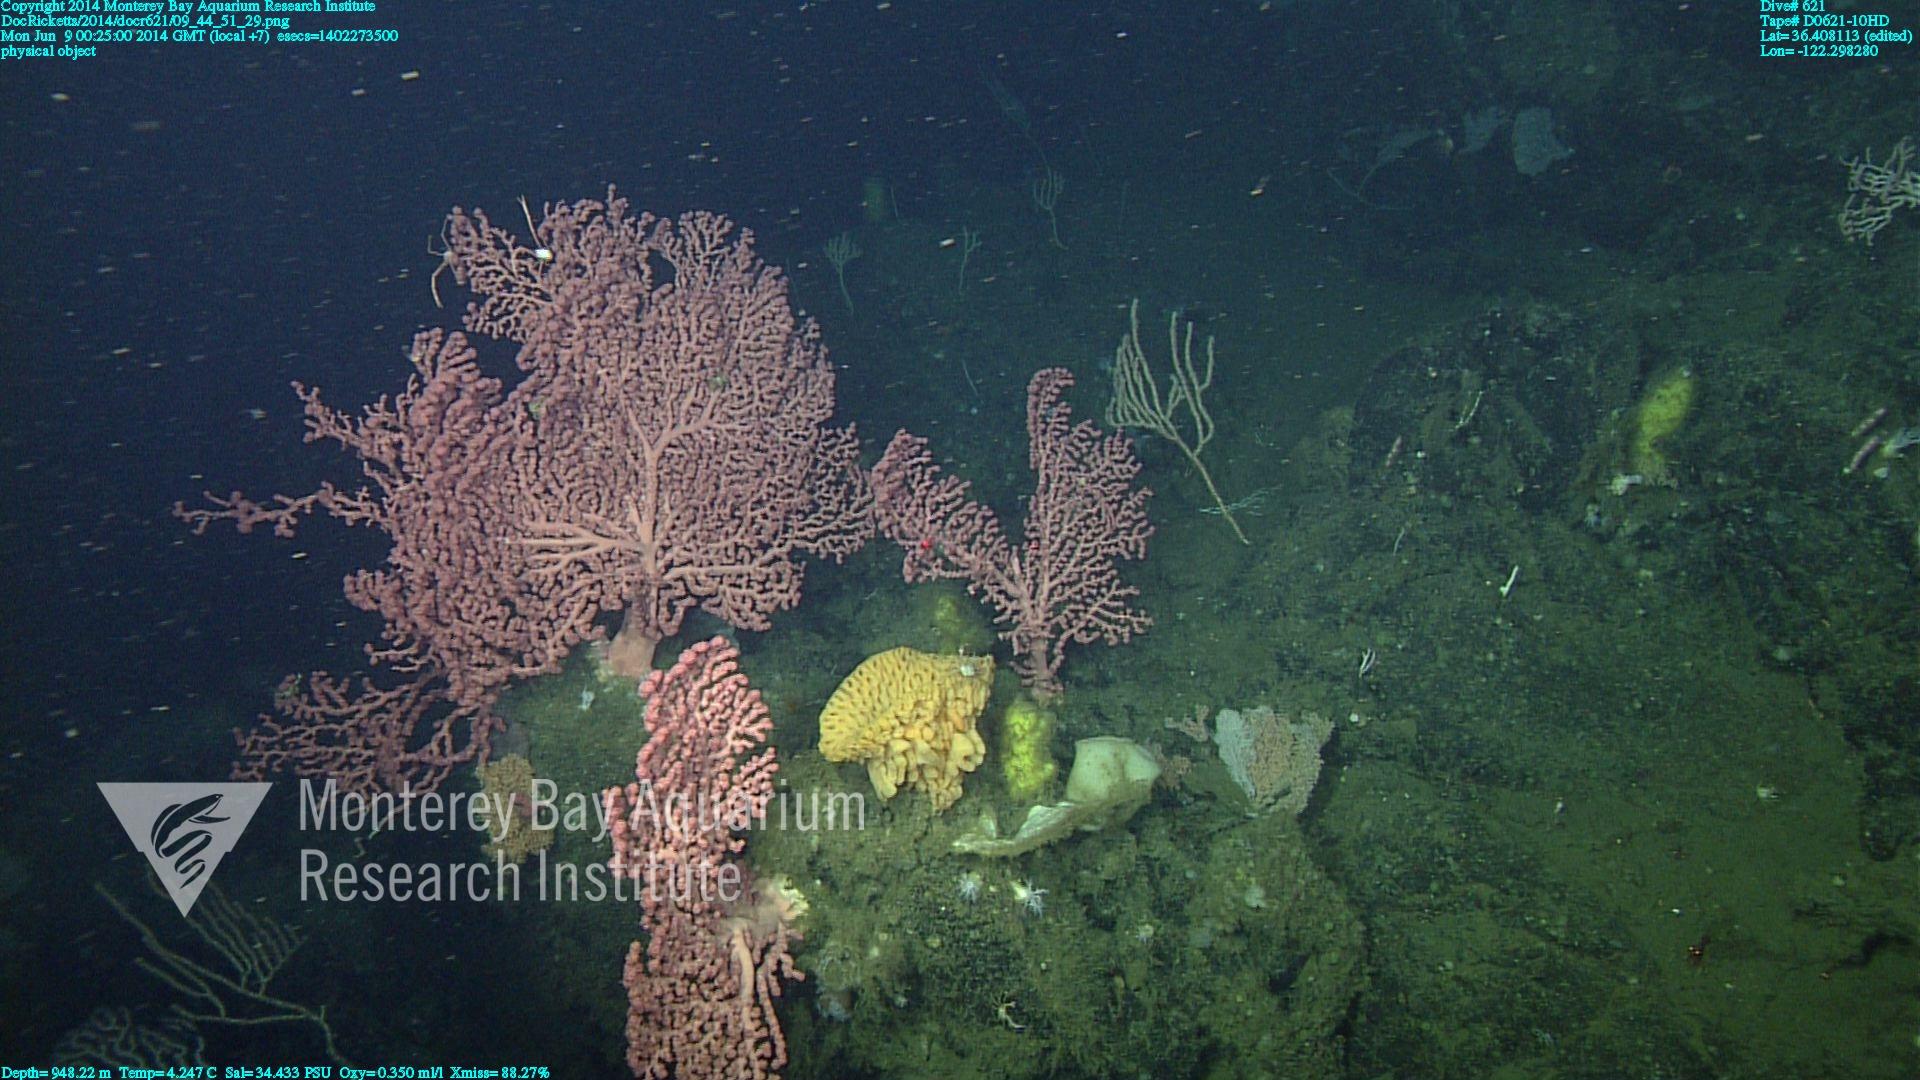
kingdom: Animalia
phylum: Cnidaria
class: Anthozoa
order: Scleralcyonacea
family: Coralliidae
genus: Paragorgia
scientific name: Paragorgia arborea
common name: Bubble gum coral
